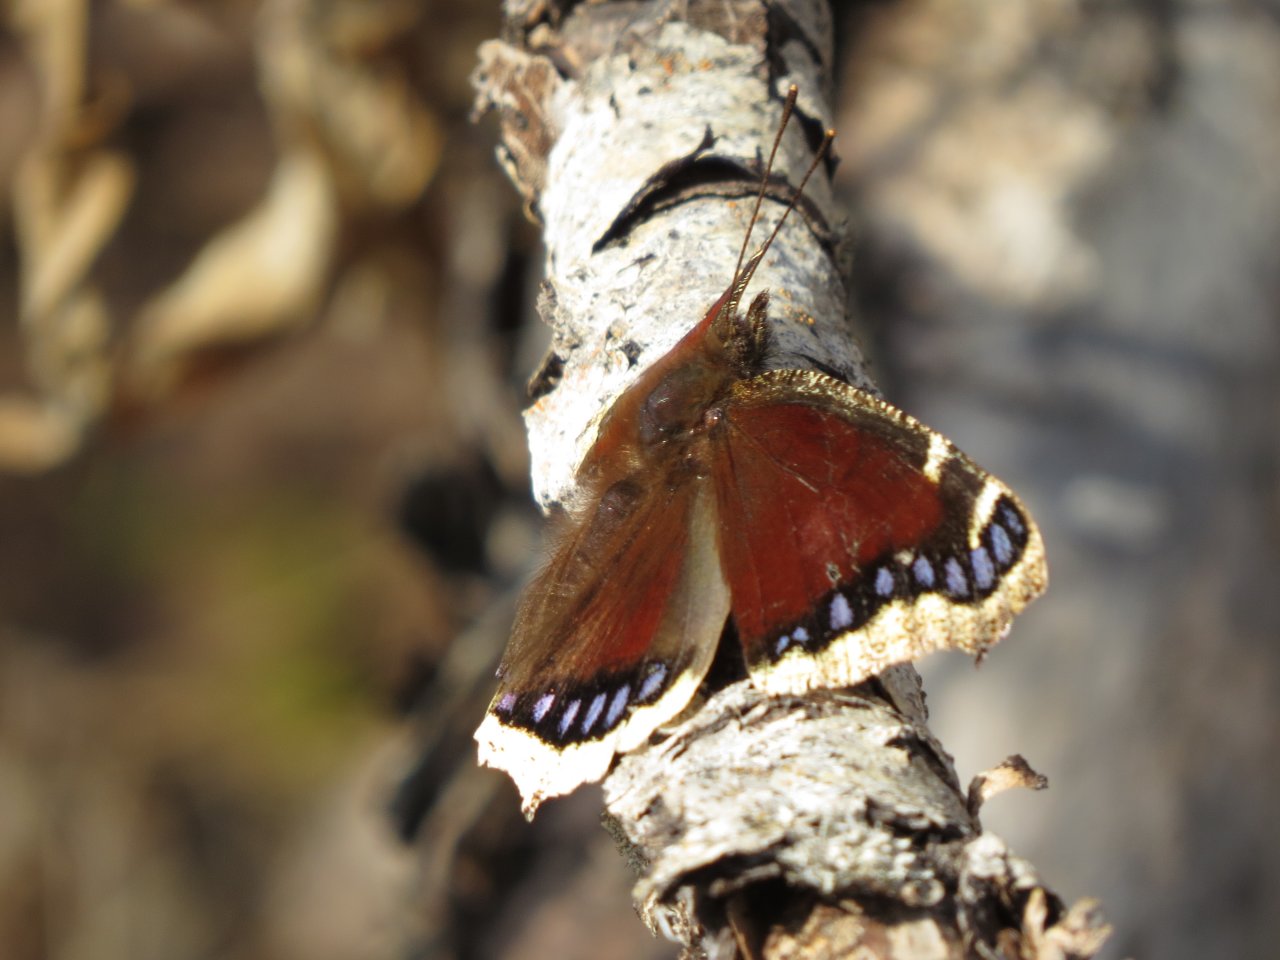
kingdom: Animalia
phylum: Arthropoda
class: Insecta
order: Lepidoptera
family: Nymphalidae
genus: Nymphalis
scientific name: Nymphalis antiopa
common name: Mourning Cloak
